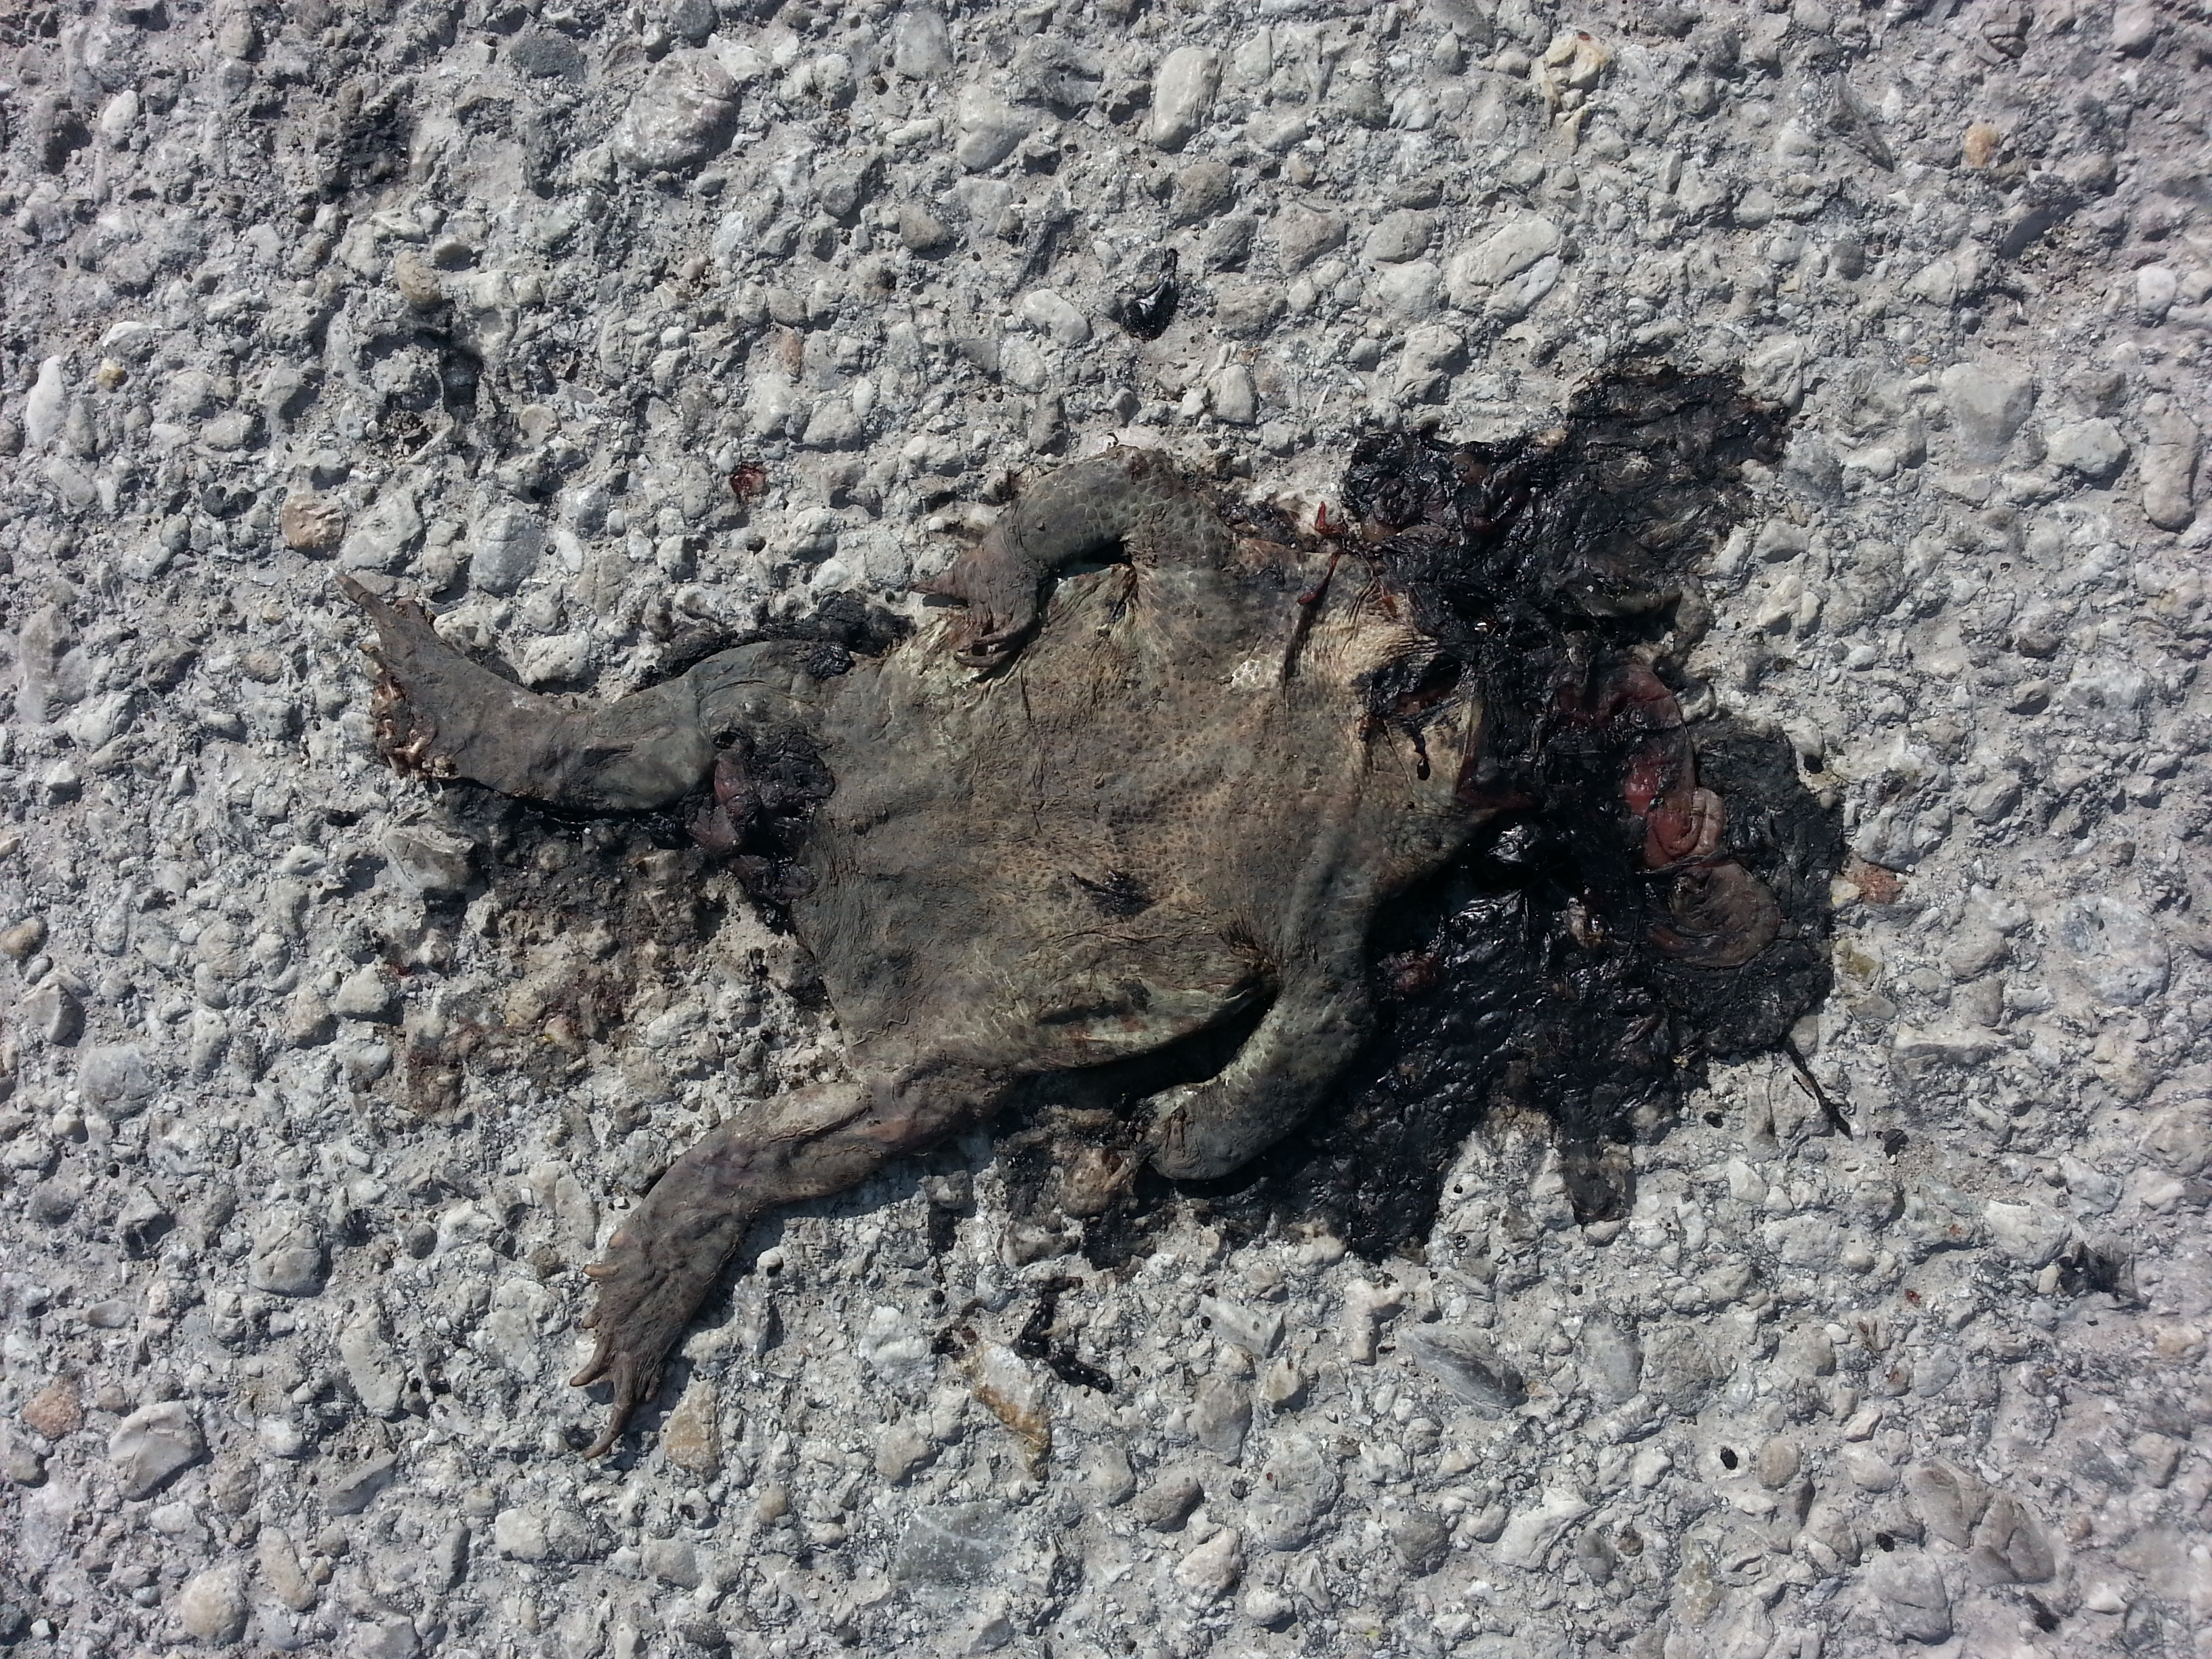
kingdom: Animalia
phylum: Chordata
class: Amphibia
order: Anura
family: Bufonidae
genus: Bufo
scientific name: Bufo bufo
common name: Common toad
